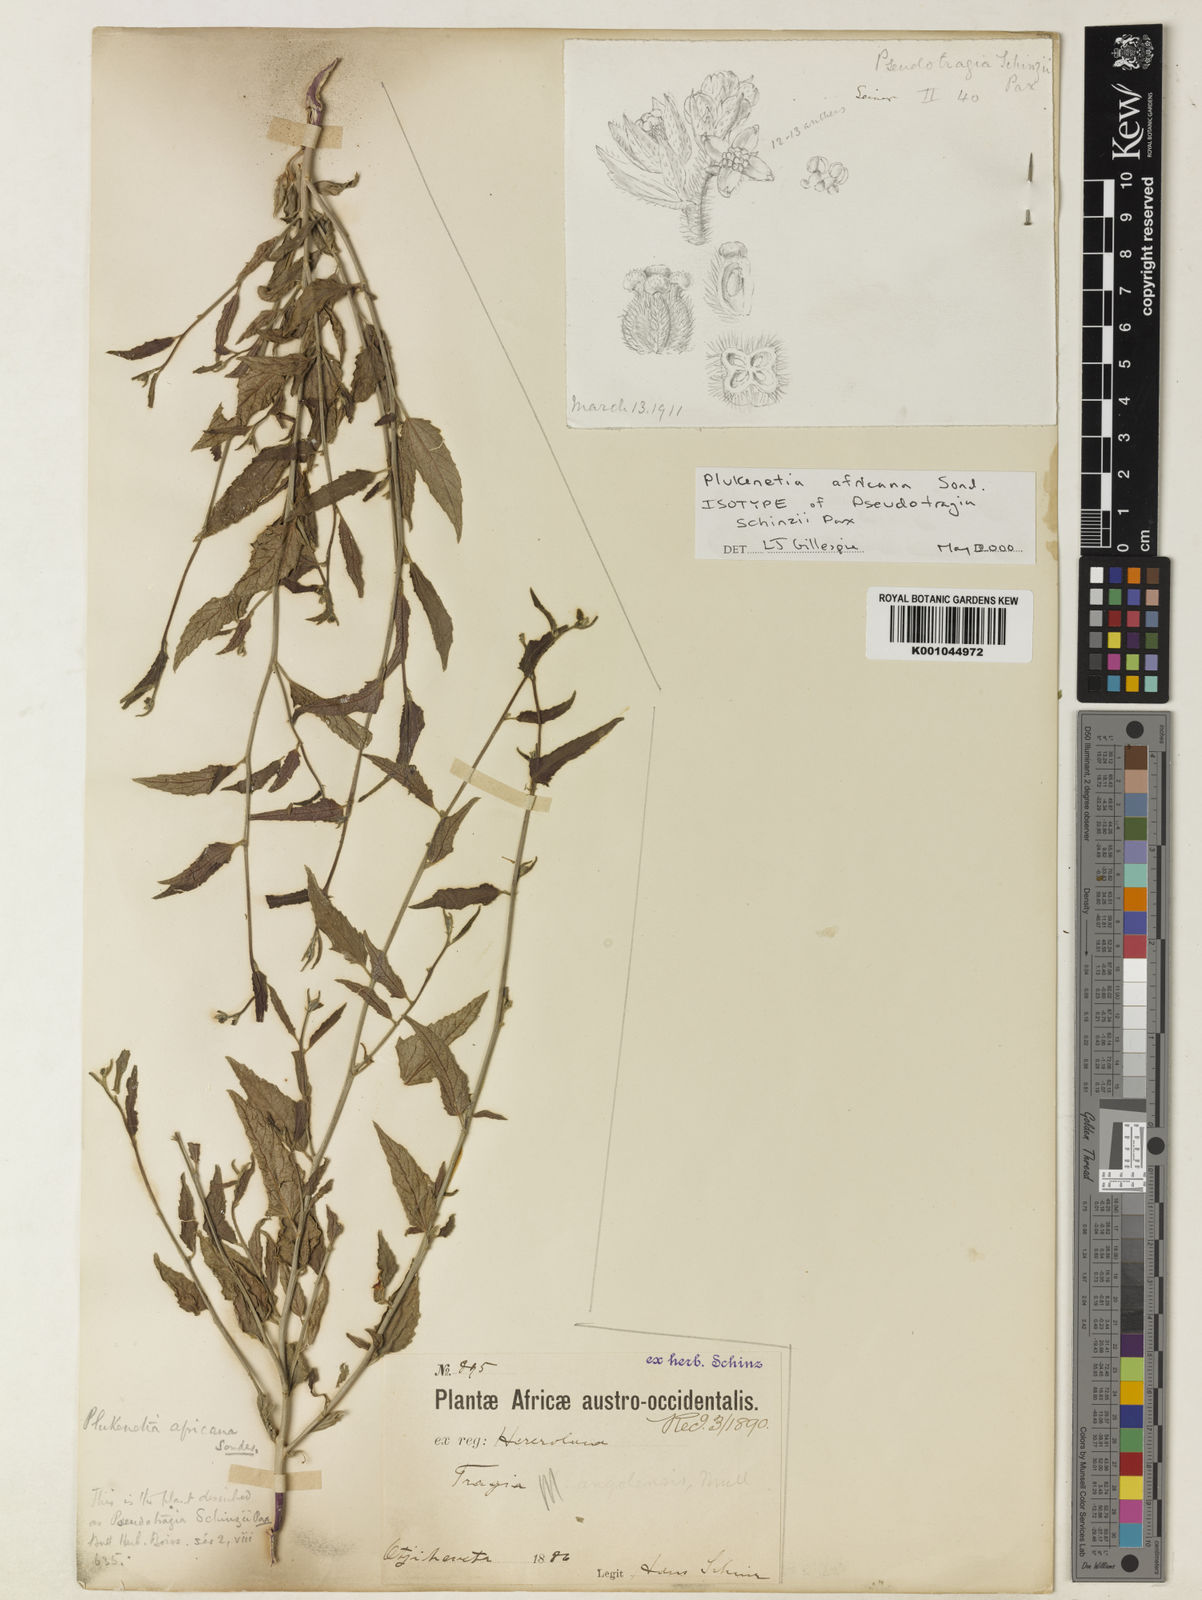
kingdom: Plantae
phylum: Tracheophyta
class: Magnoliopsida
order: Malpighiales
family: Euphorbiaceae
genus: Plukenetia
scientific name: Plukenetia africana
